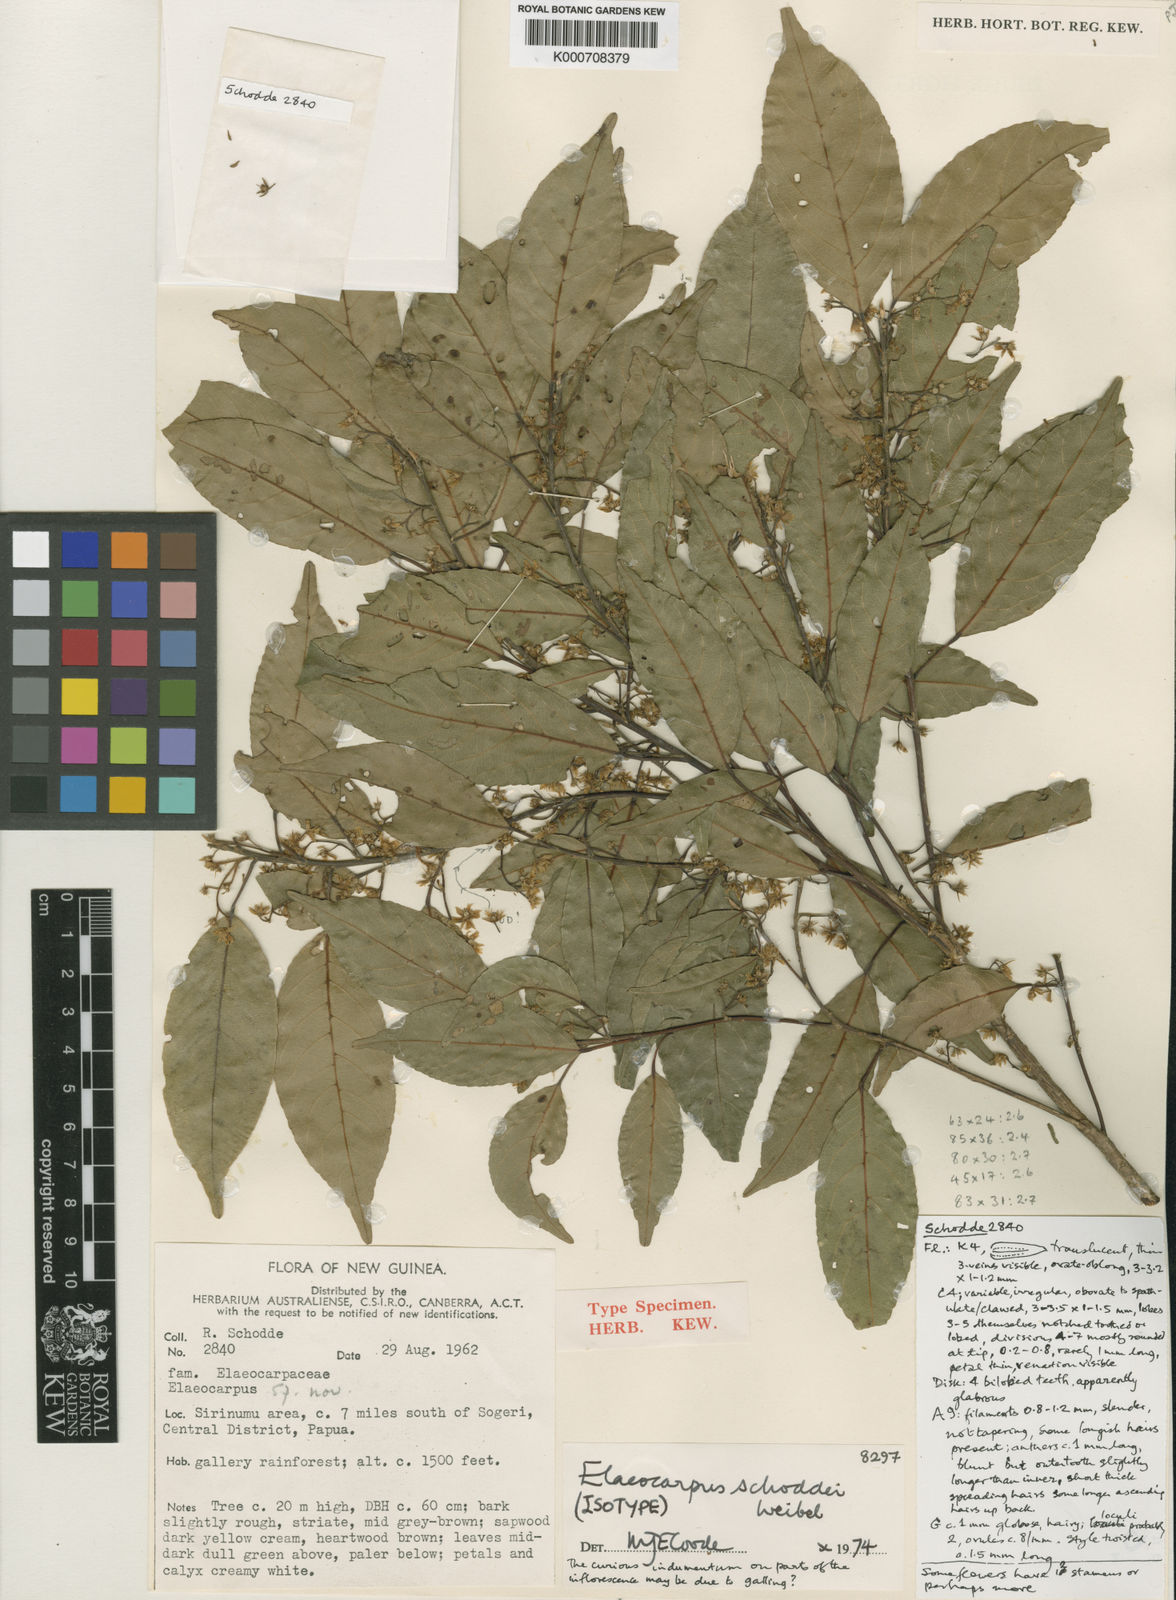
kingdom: Plantae
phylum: Tracheophyta
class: Magnoliopsida
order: Oxalidales
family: Elaeocarpaceae
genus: Elaeocarpus
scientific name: Elaeocarpus schoddei
